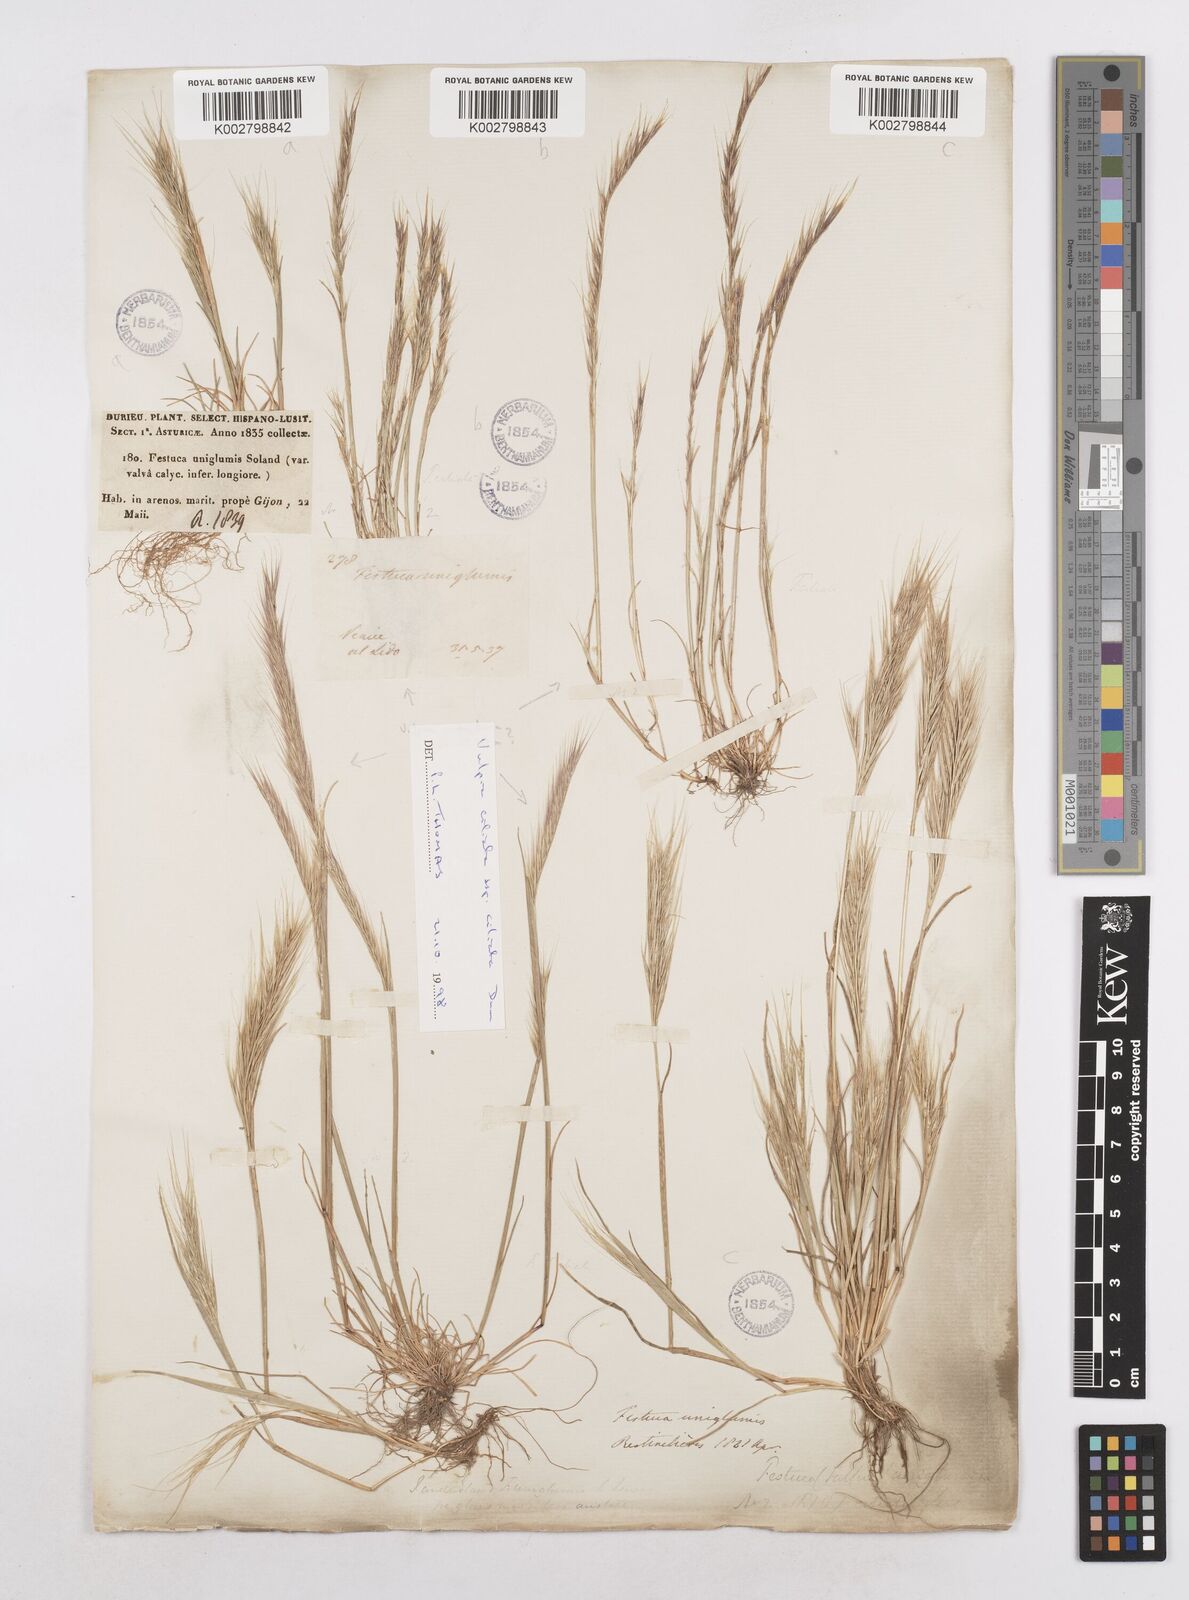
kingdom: Plantae
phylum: Tracheophyta
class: Liliopsida
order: Poales
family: Poaceae
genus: Festuca
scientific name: Festuca membranacea
